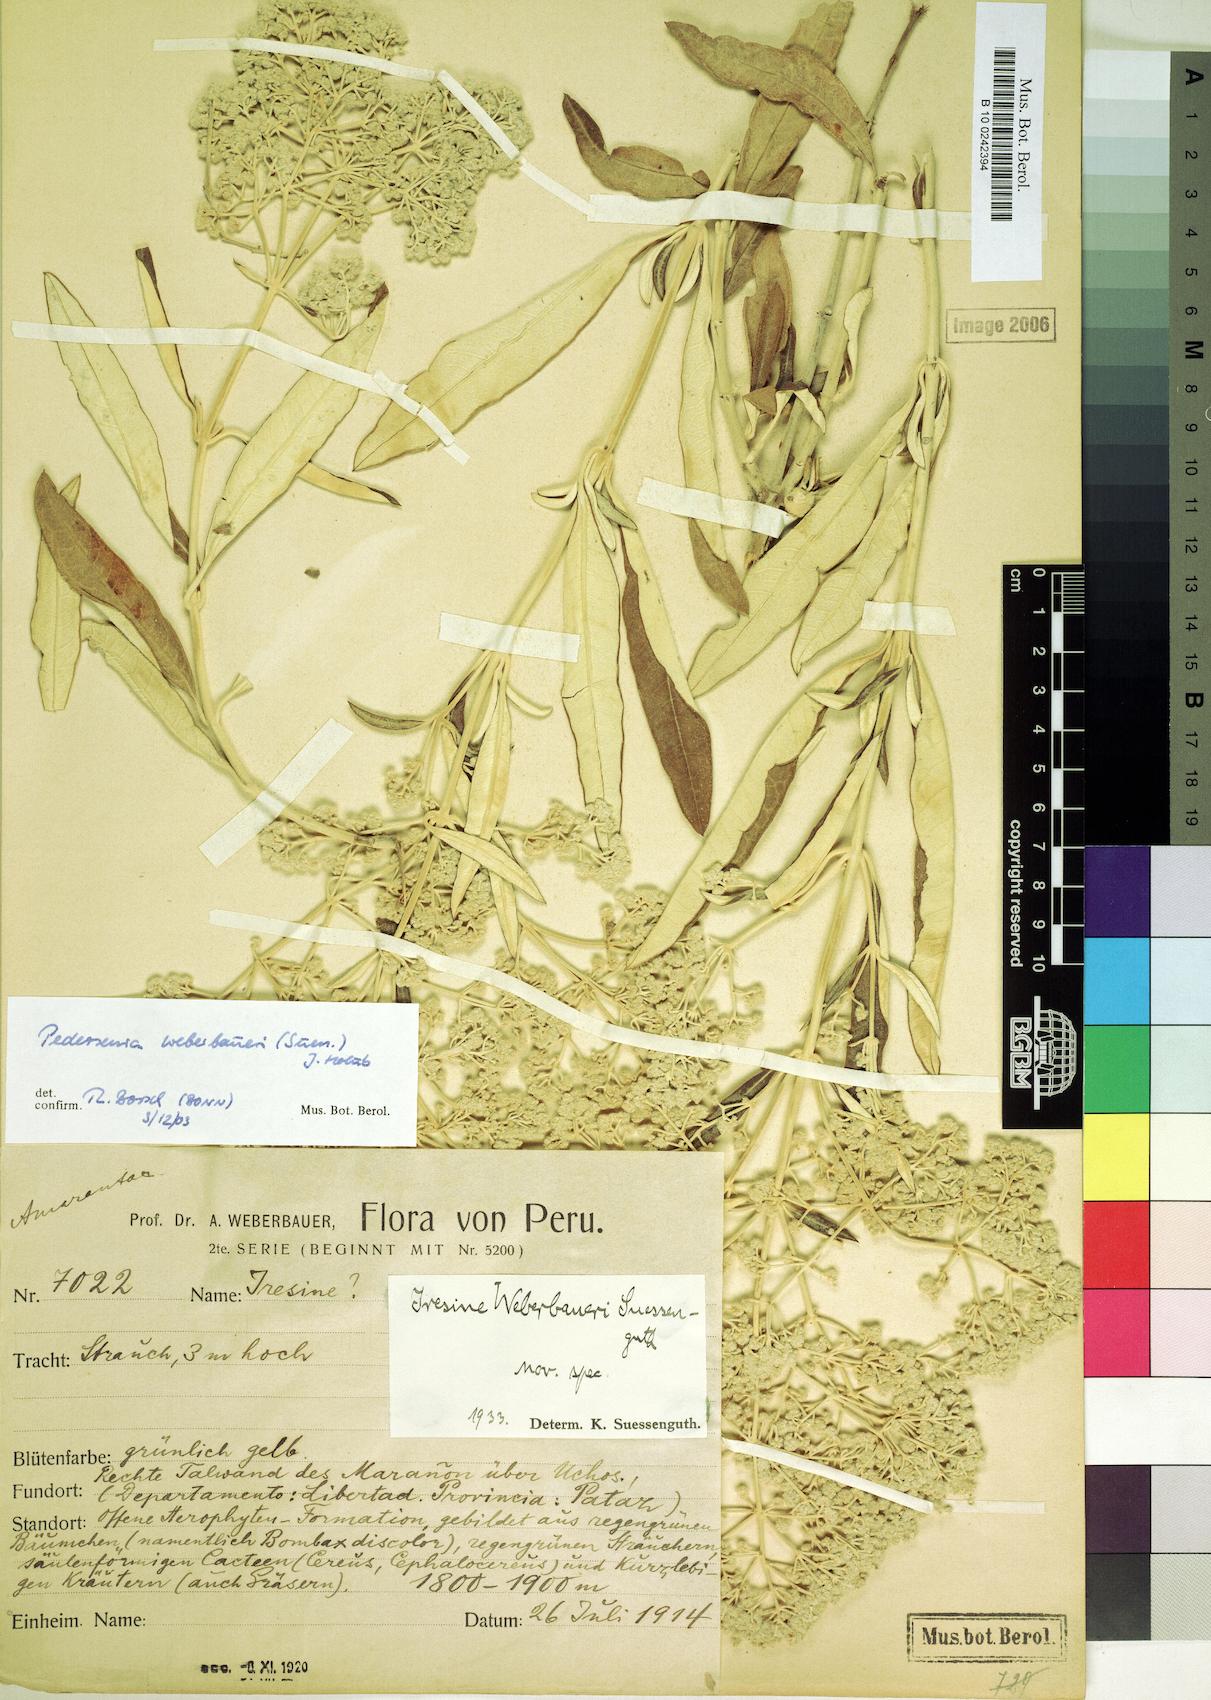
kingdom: Plantae
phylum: Tracheophyta
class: Magnoliopsida
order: Caryophyllales
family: Amaranthaceae
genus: Pedersenia
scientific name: Pedersenia weberbaueri
